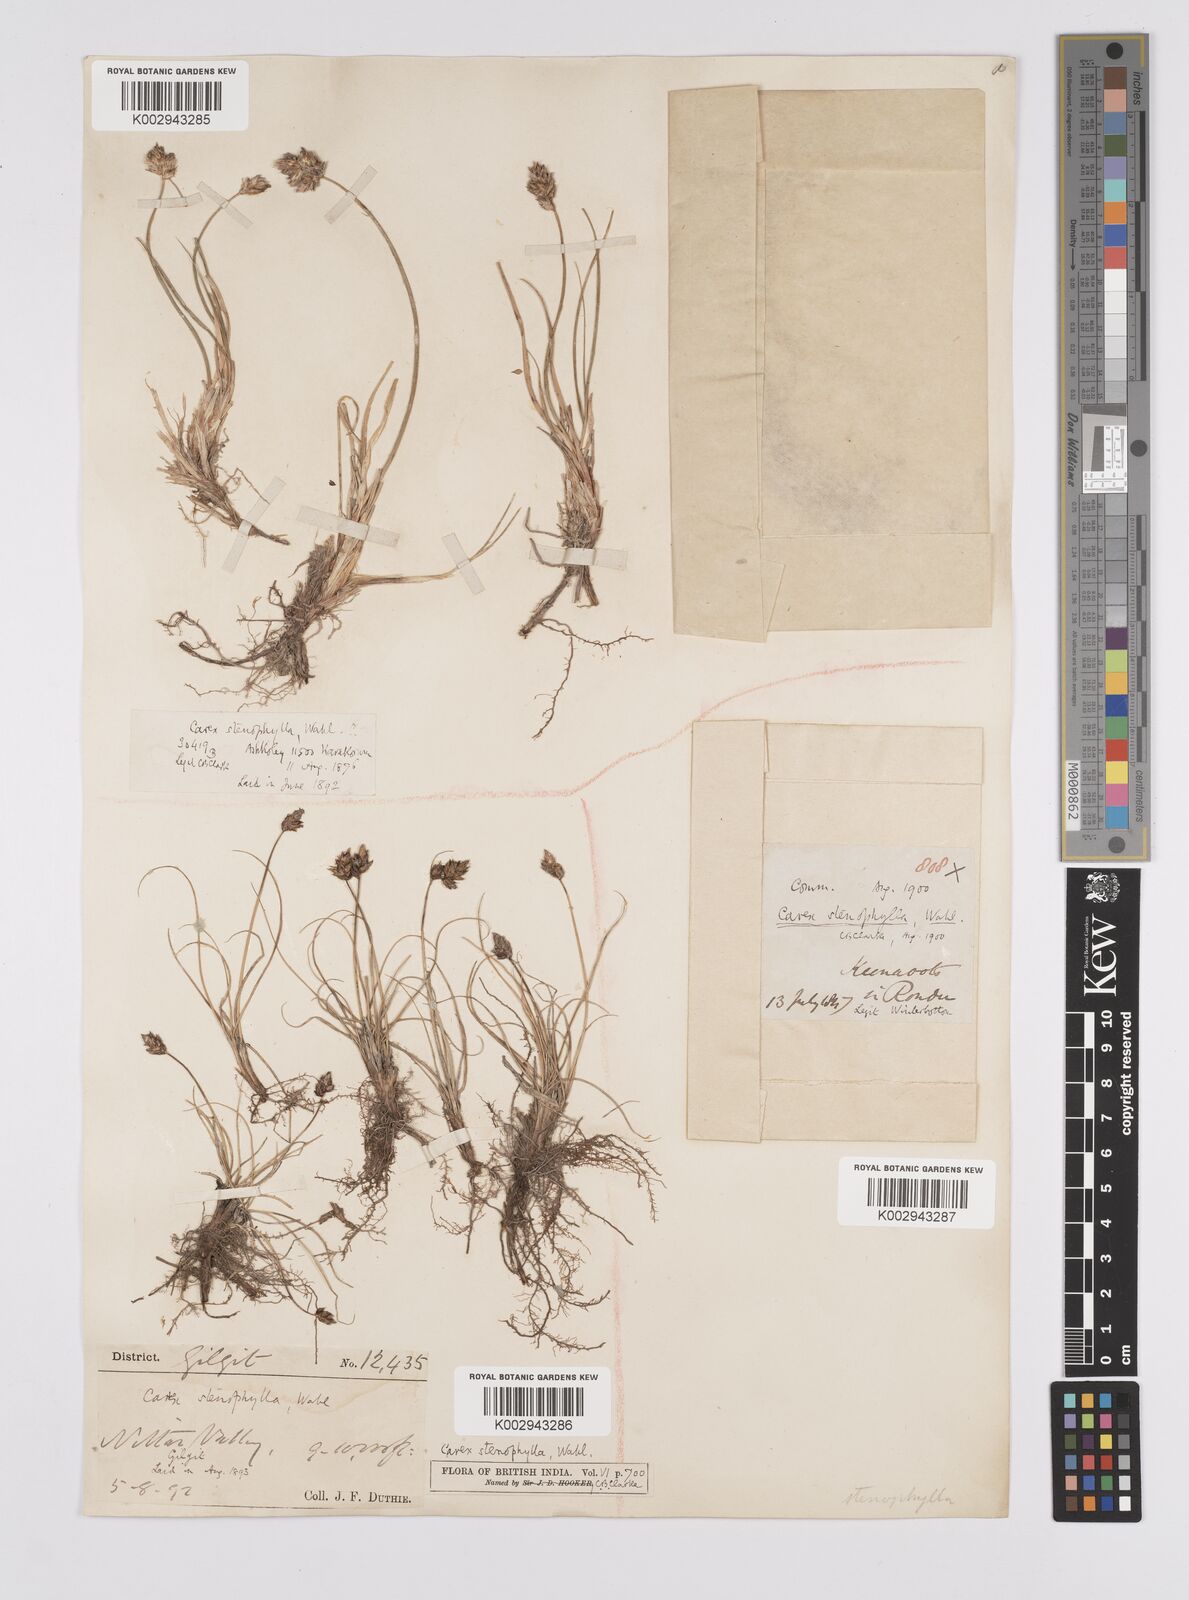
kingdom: Plantae
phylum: Tracheophyta
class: Liliopsida
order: Poales
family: Cyperaceae
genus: Carex
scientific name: Carex stenophylla
